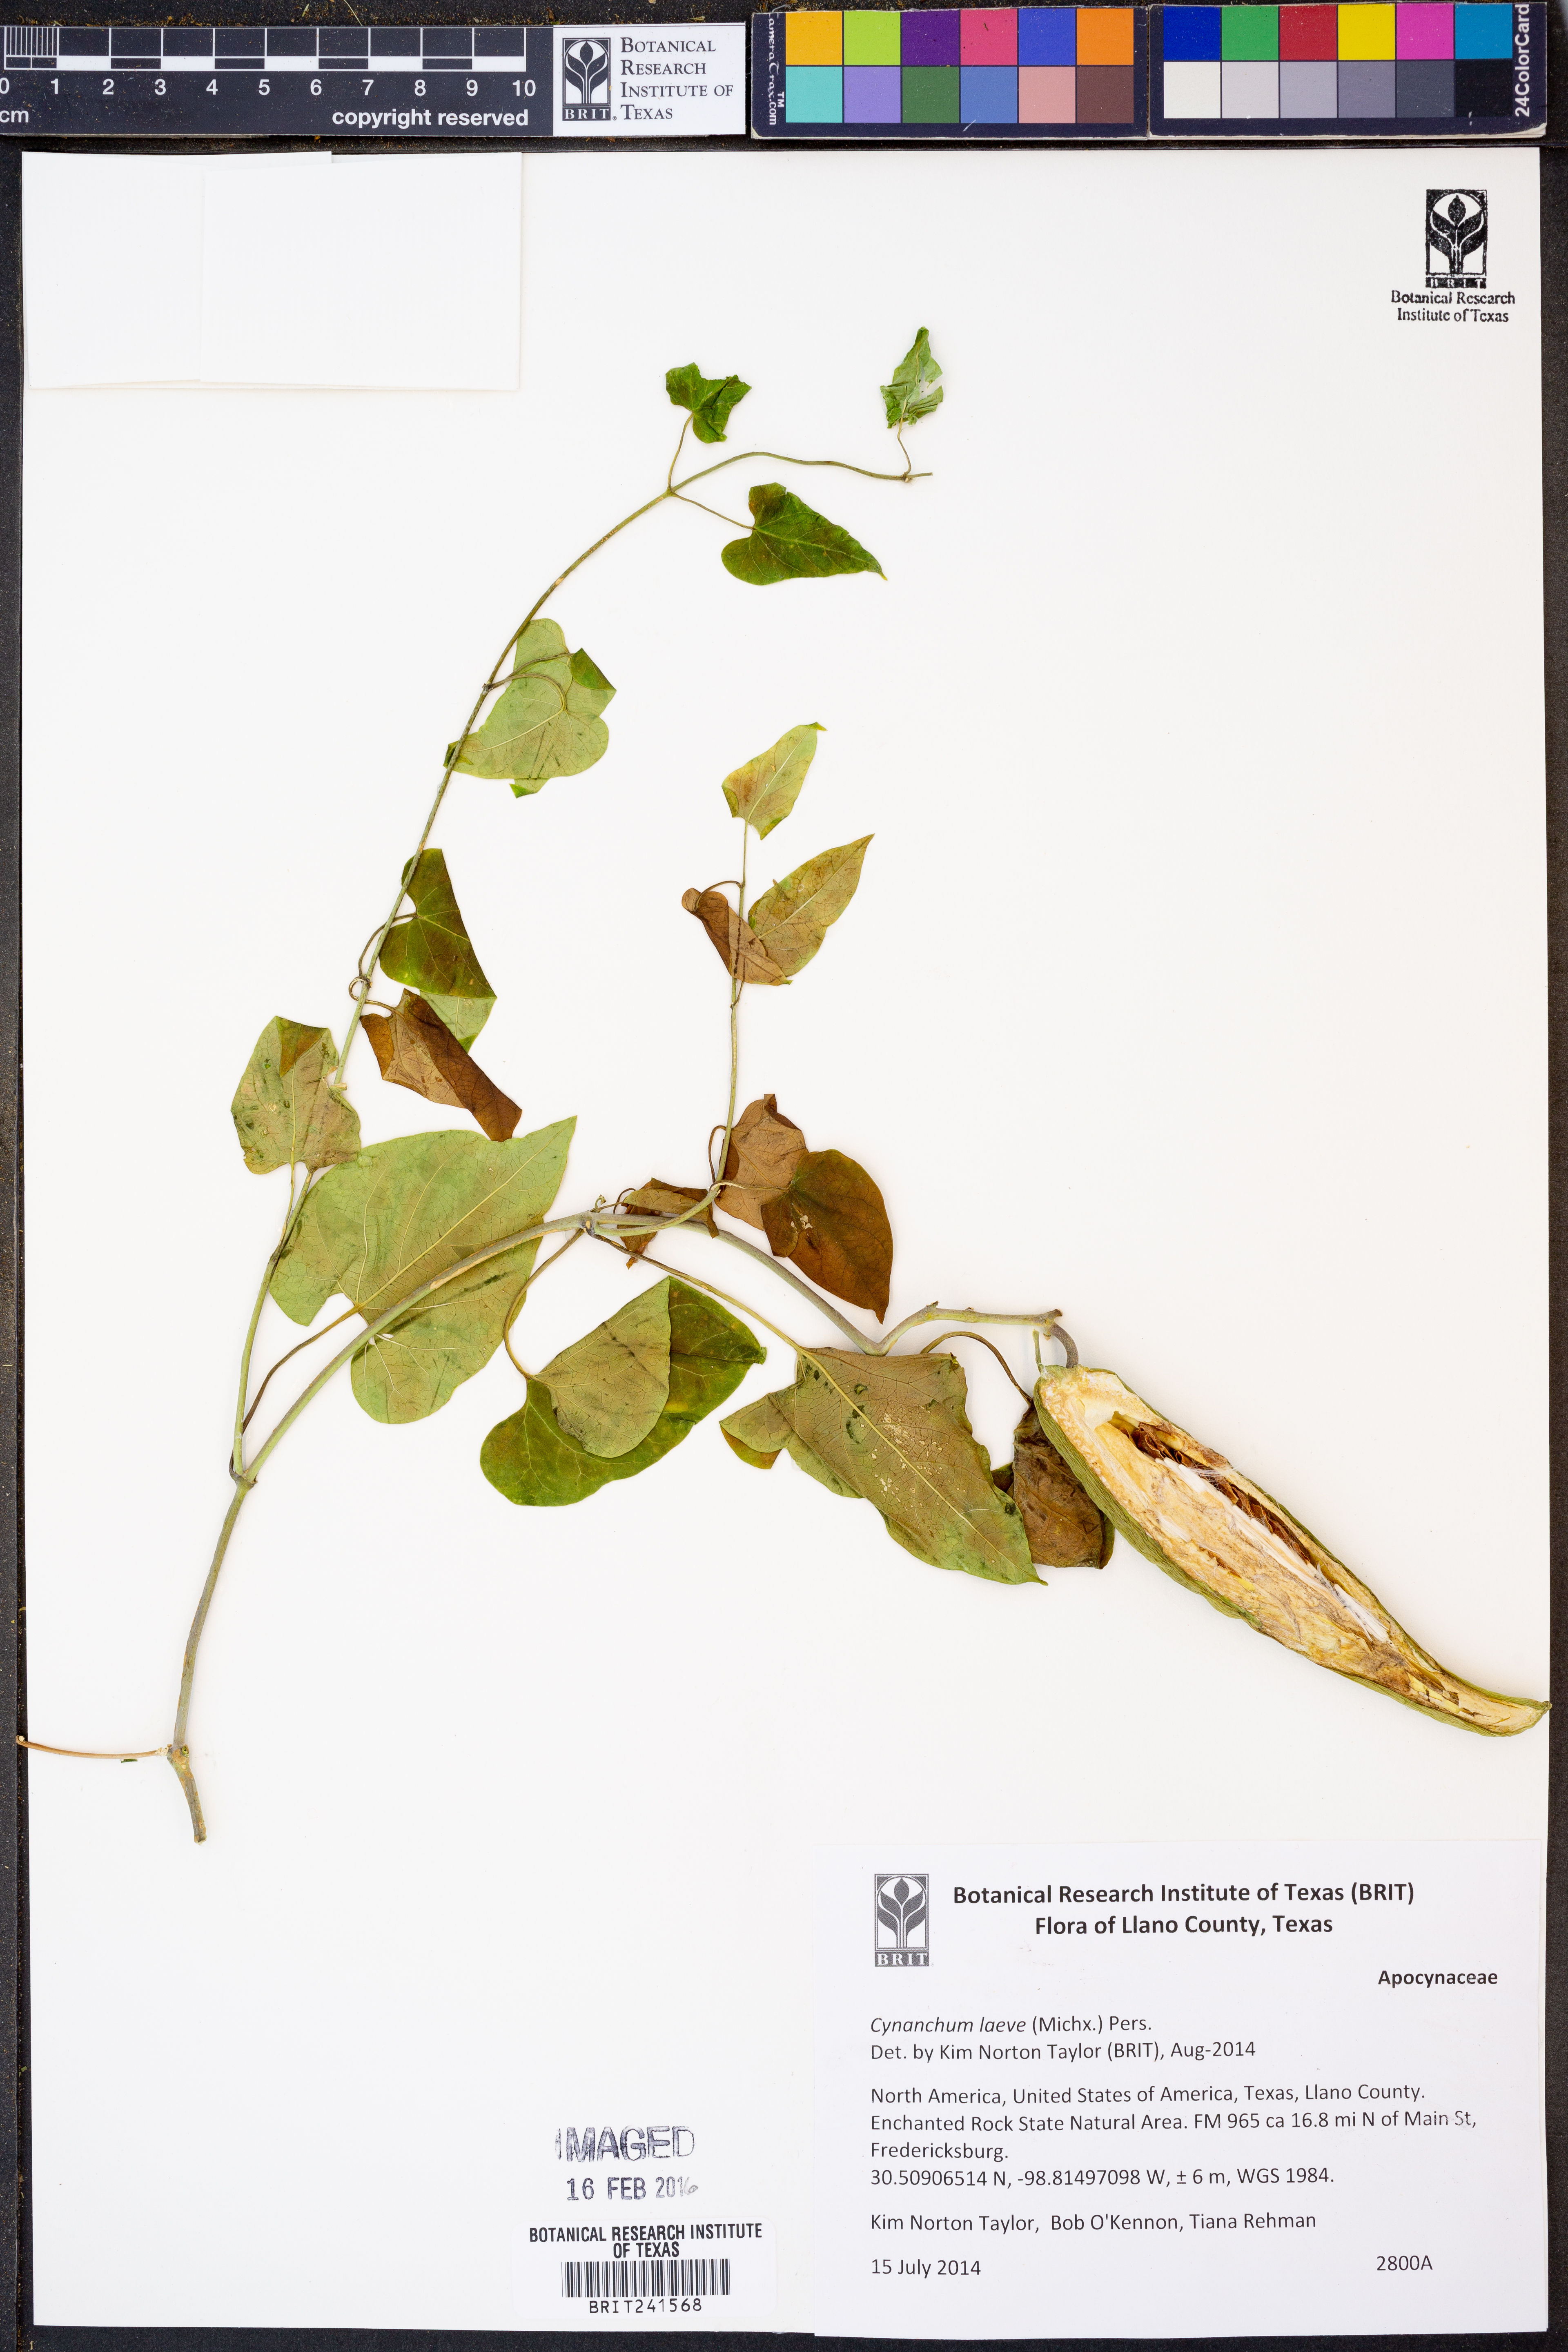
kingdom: Plantae
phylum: Tracheophyta
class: Magnoliopsida
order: Gentianales
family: Apocynaceae
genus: Cynanchum
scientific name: Cynanchum laeve
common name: Sandvine
